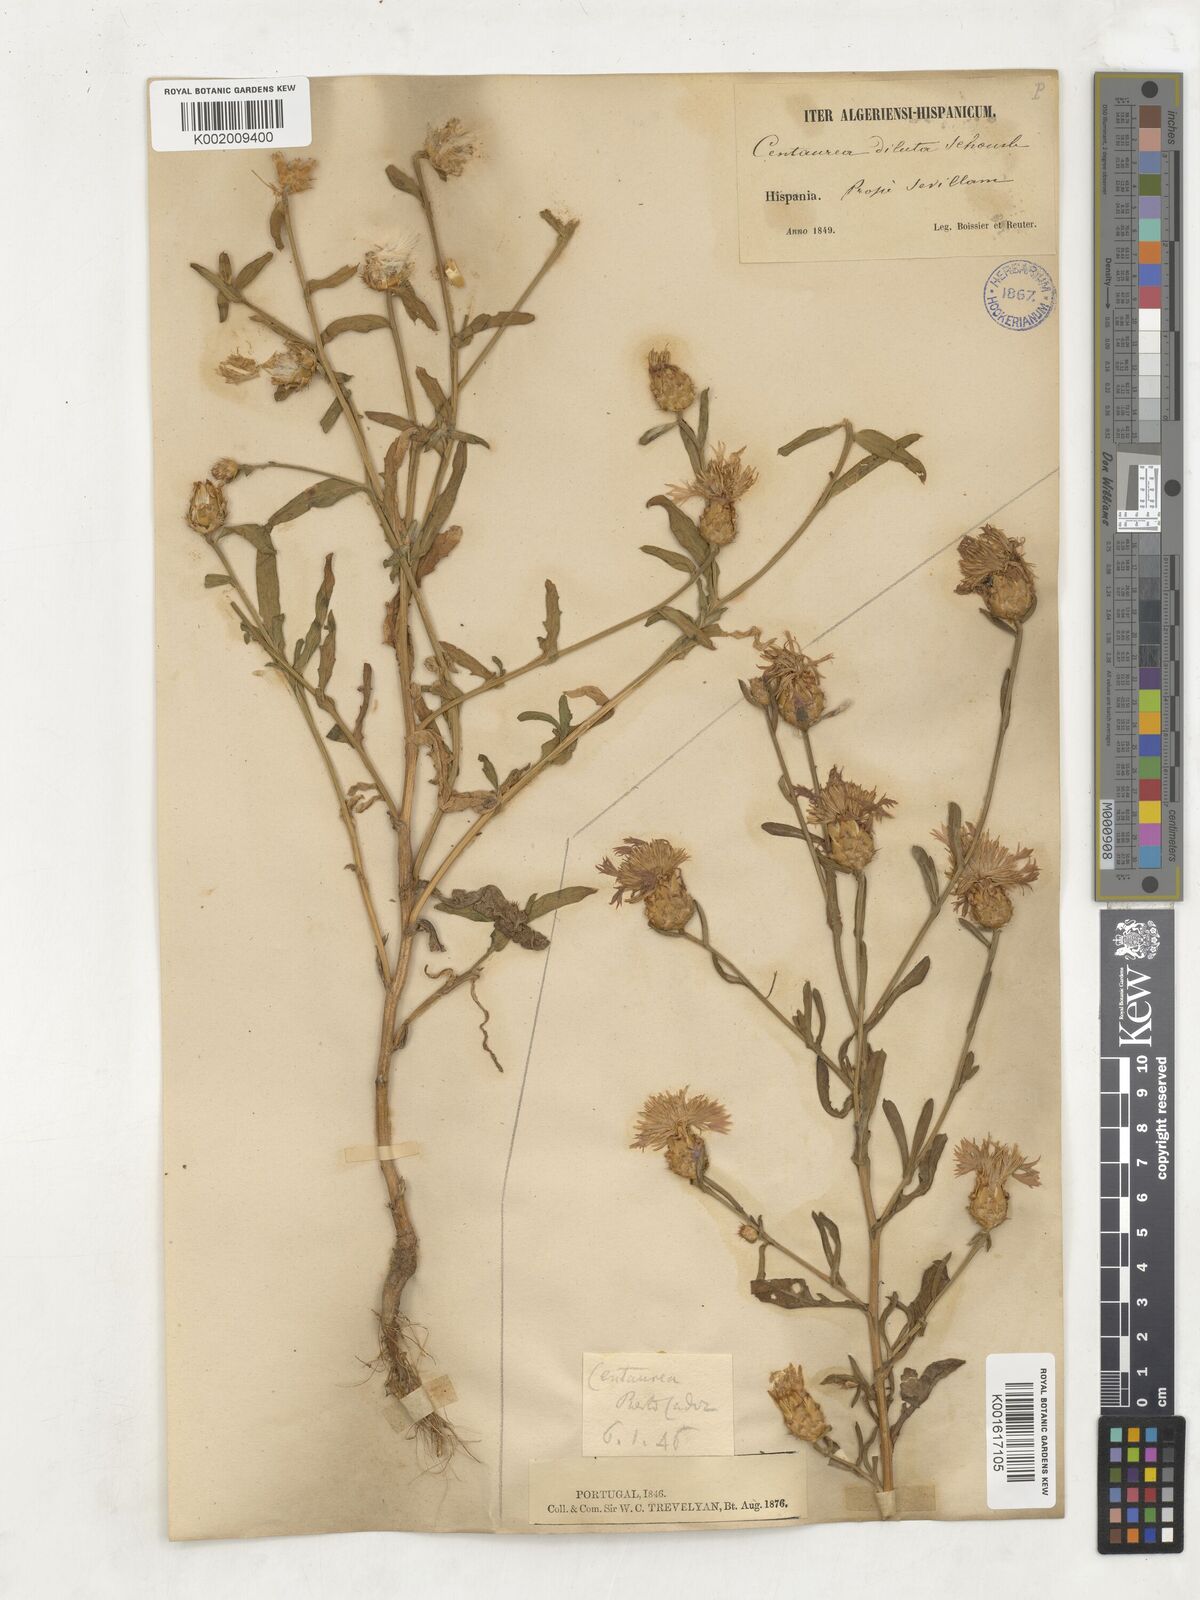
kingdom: Plantae
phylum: Tracheophyta
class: Magnoliopsida
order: Asterales
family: Asteraceae
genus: Centaurea
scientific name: Centaurea diluta
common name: Lesser star-thistle
